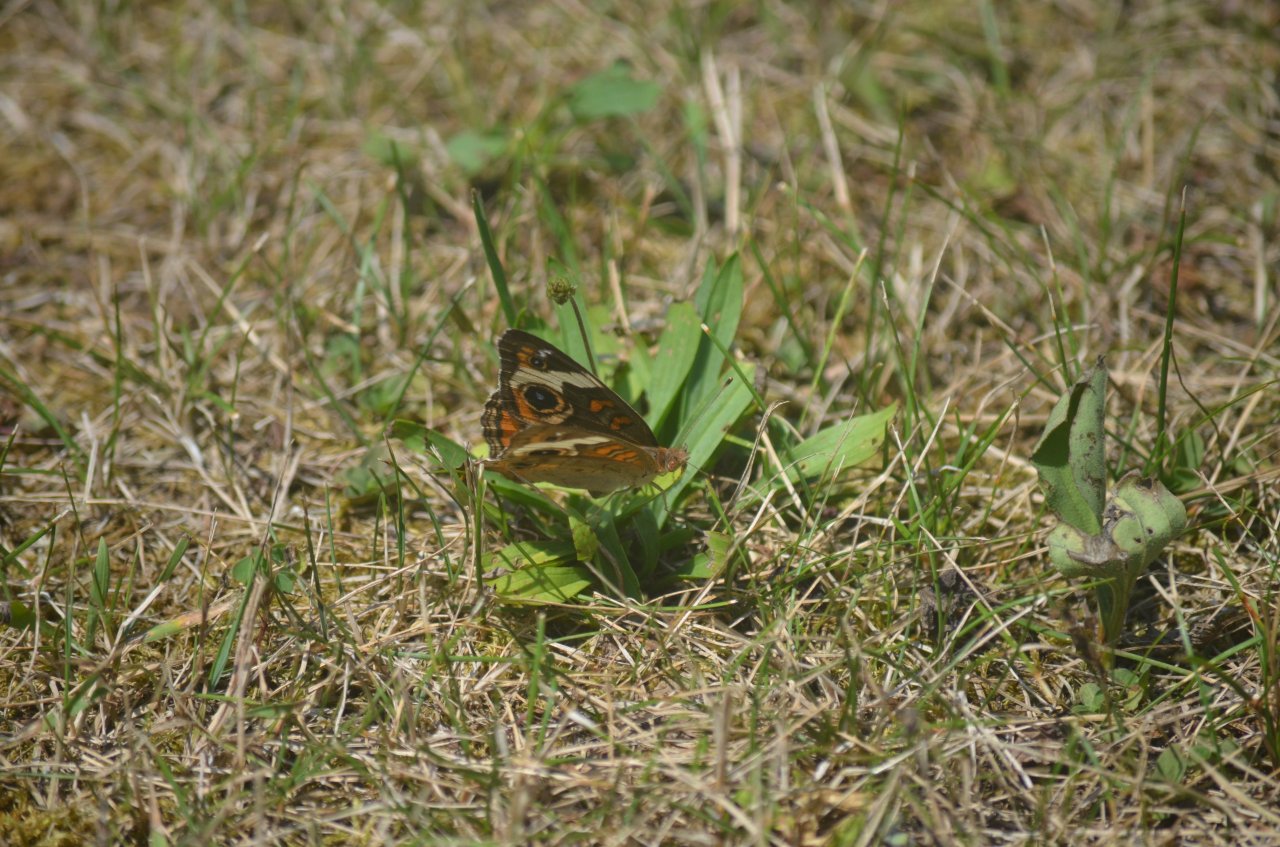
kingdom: Animalia
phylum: Arthropoda
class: Insecta
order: Lepidoptera
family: Nymphalidae
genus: Junonia
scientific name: Junonia coenia
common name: Common Buckeye
